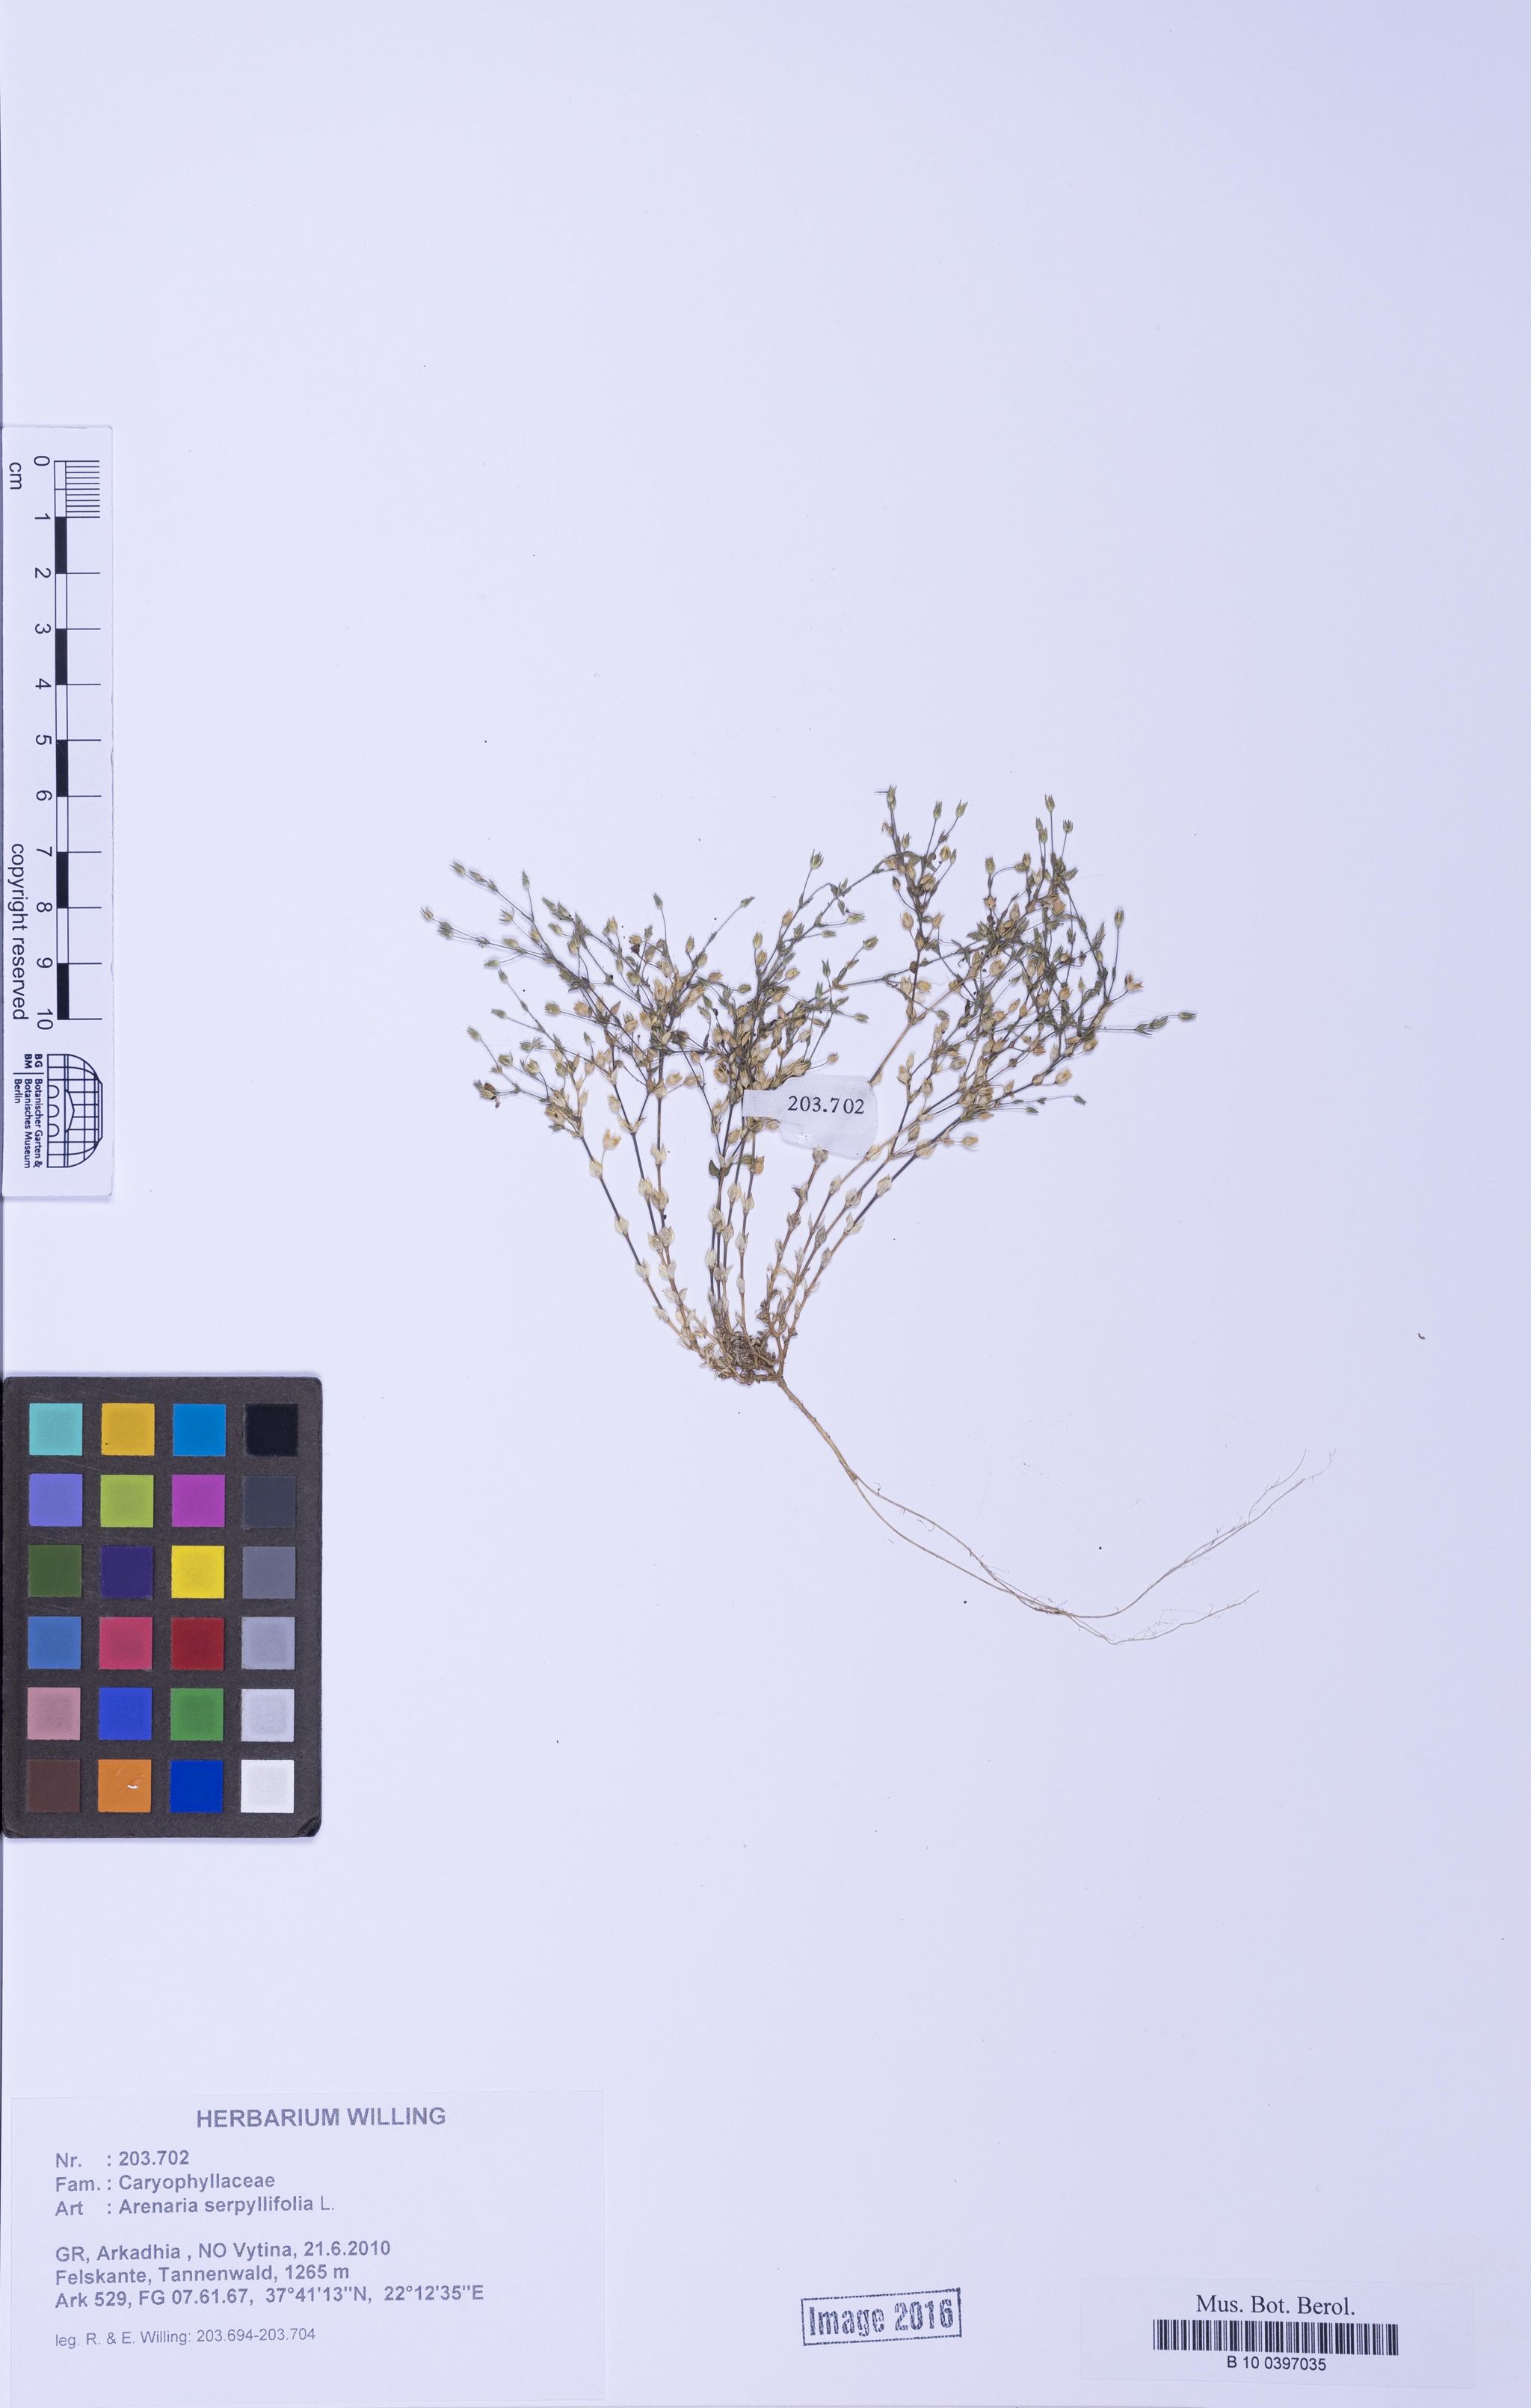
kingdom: Plantae
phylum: Tracheophyta
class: Magnoliopsida
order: Caryophyllales
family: Caryophyllaceae
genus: Arenaria
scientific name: Arenaria serpyllifolia
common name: Thyme-leaved sandwort
